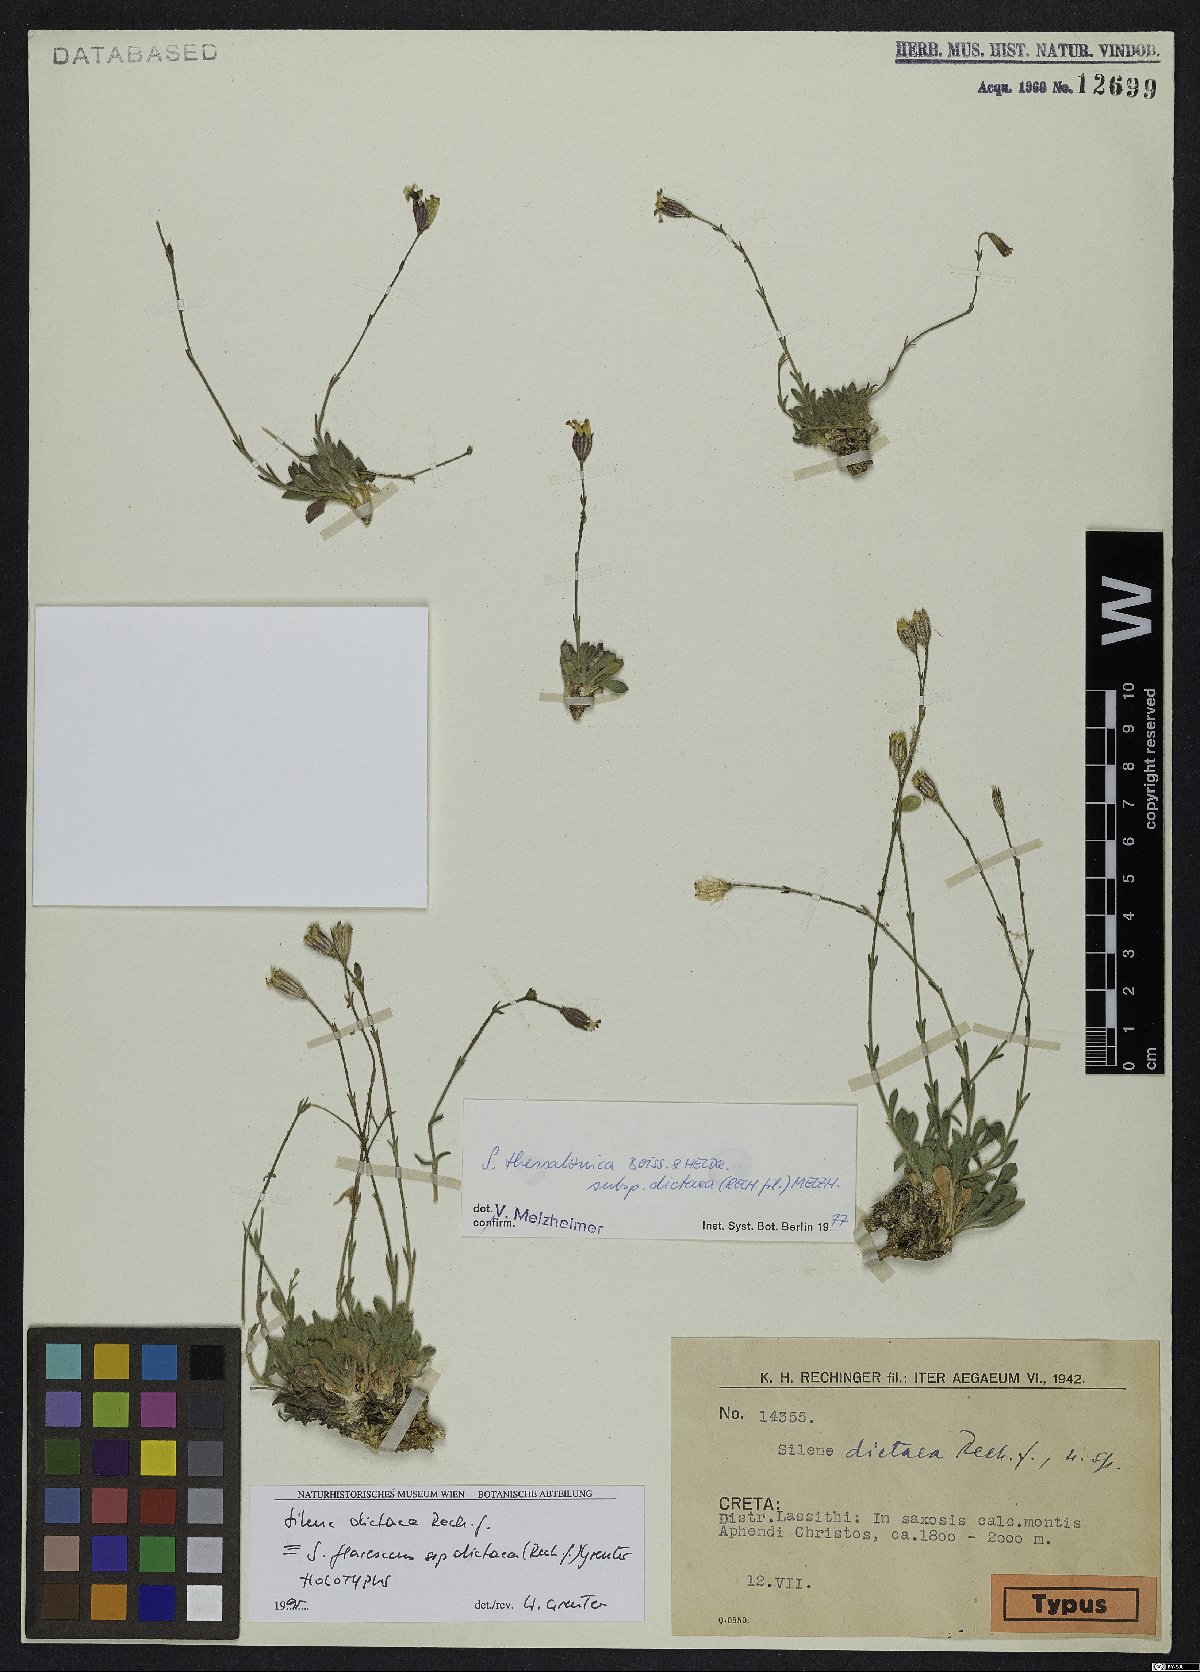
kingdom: Plantae
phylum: Tracheophyta
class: Magnoliopsida
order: Caryophyllales
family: Caryophyllaceae
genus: Silene
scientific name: Silene flavescens
